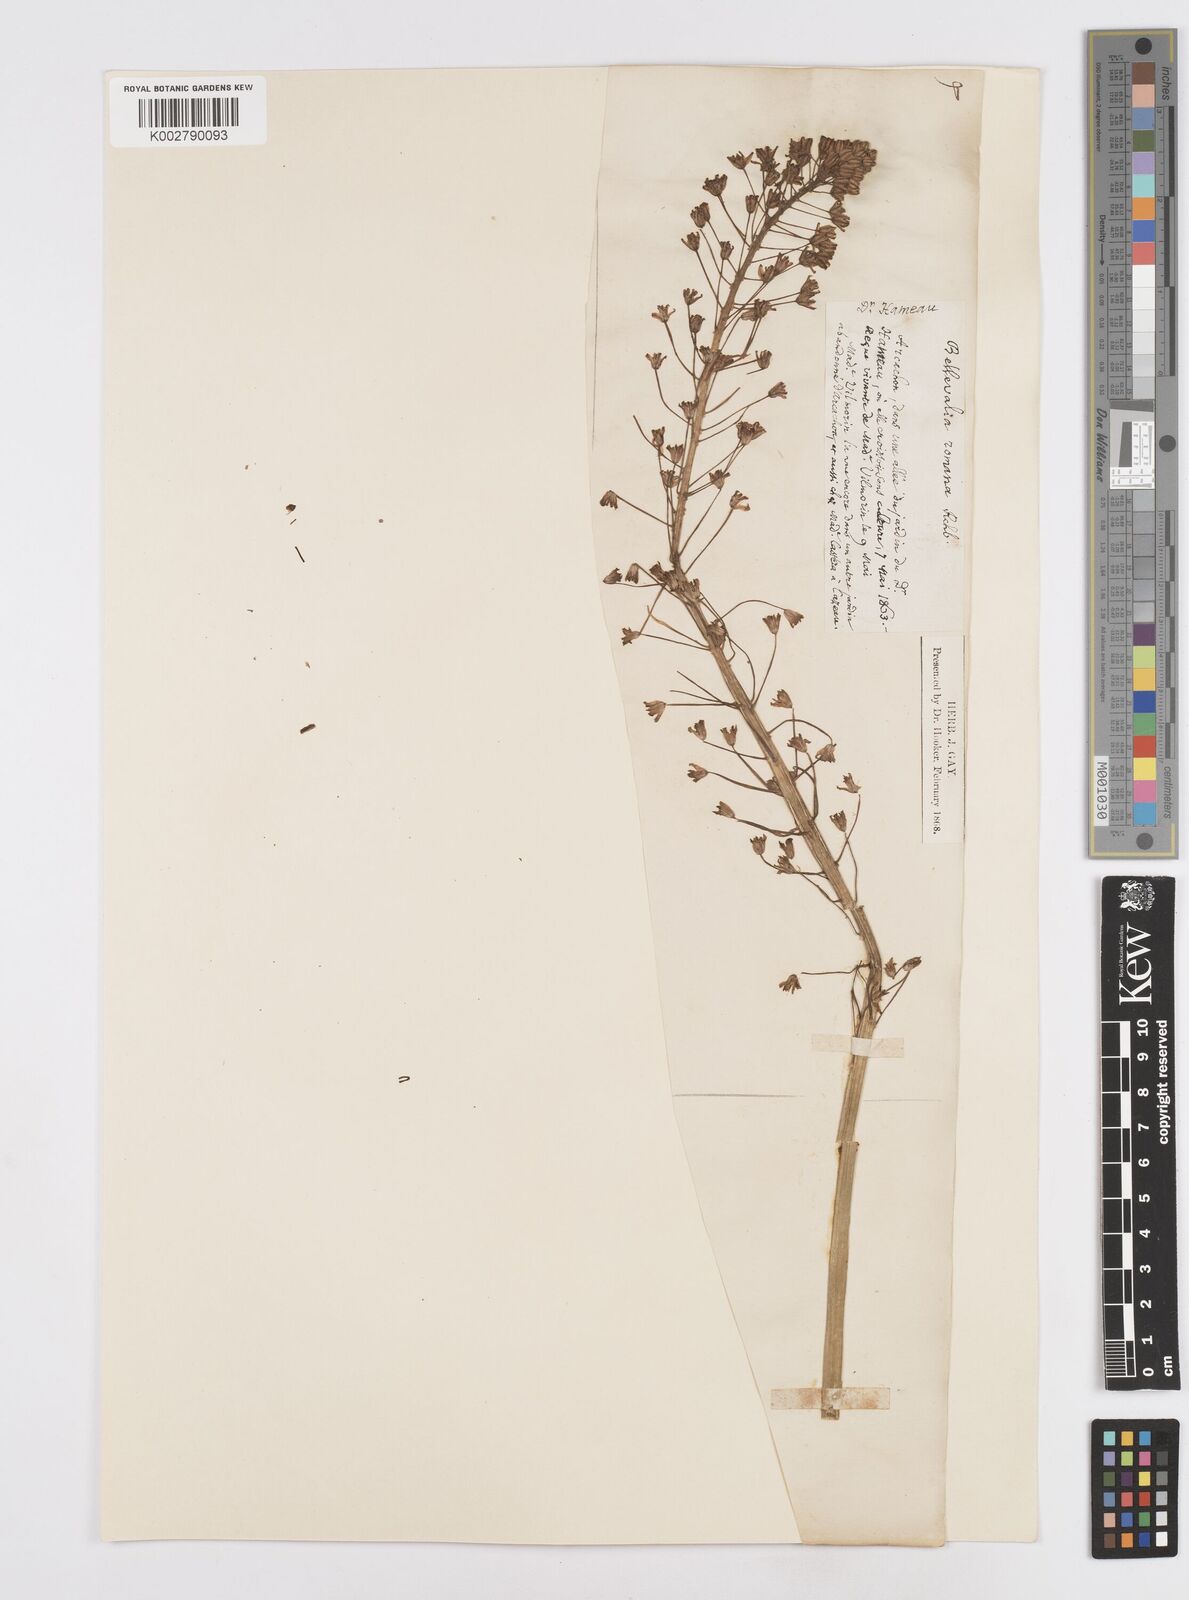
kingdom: Plantae
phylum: Tracheophyta
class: Liliopsida
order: Asparagales
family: Asparagaceae
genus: Scilla
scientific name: Scilla hyacinthoides
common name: Scilla
